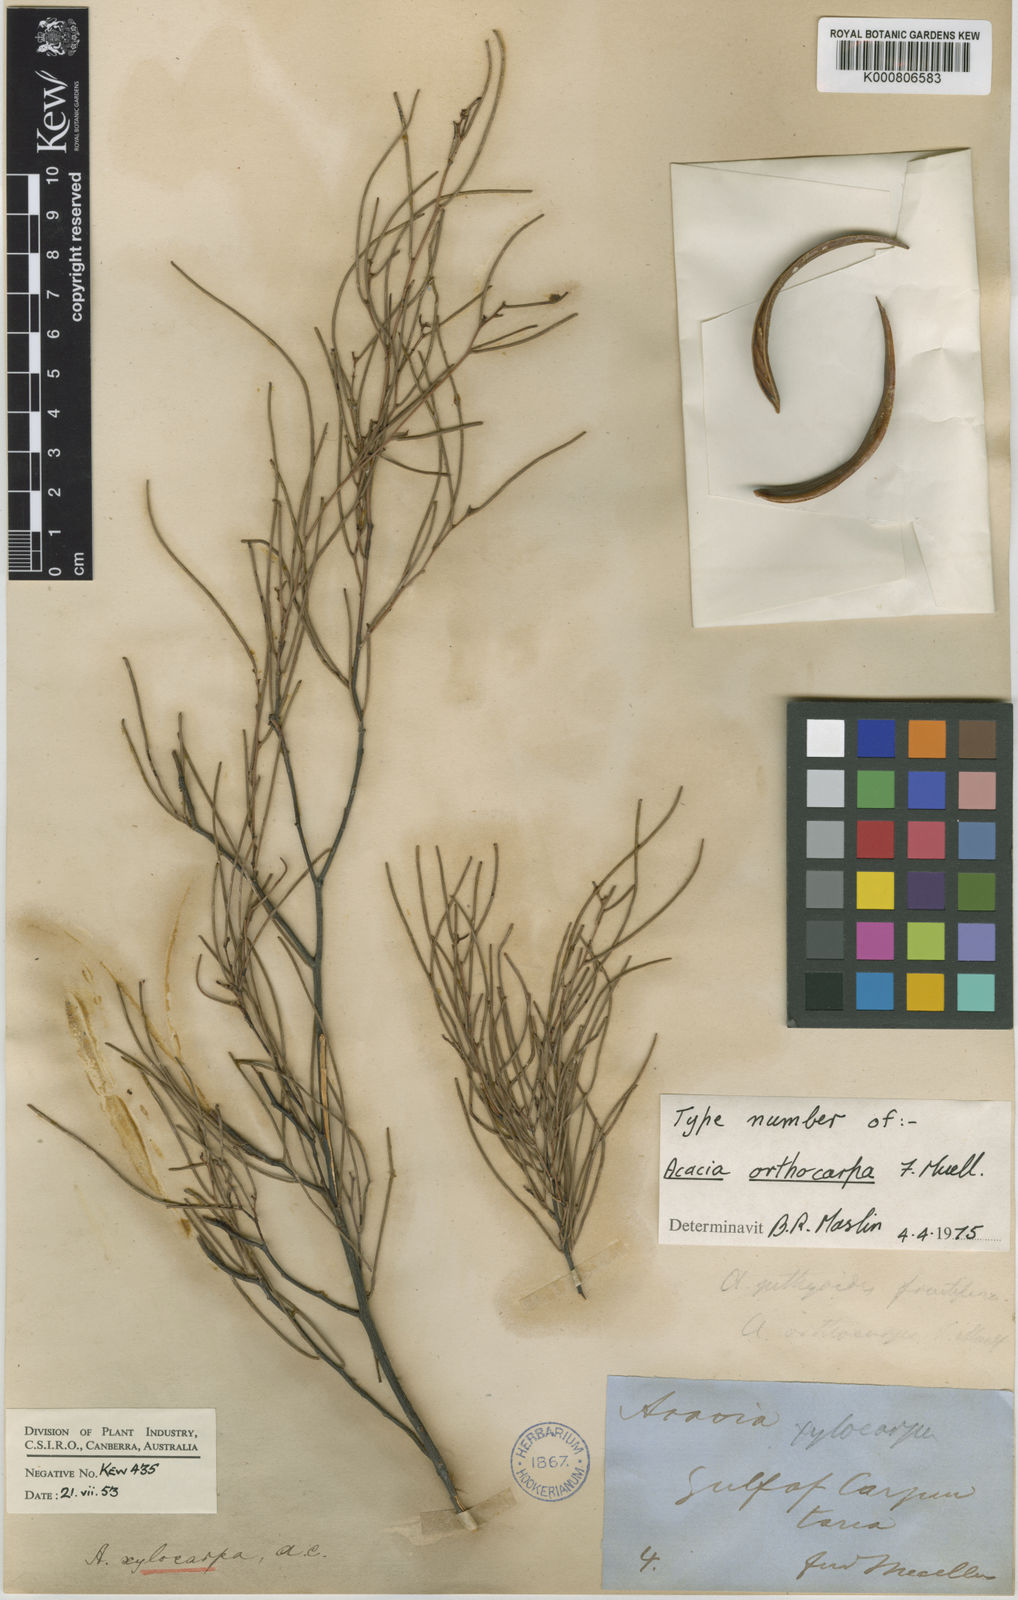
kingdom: Plantae
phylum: Tracheophyta
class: Magnoliopsida
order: Fabales
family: Fabaceae
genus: Acacia
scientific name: Acacia orthocarpa
